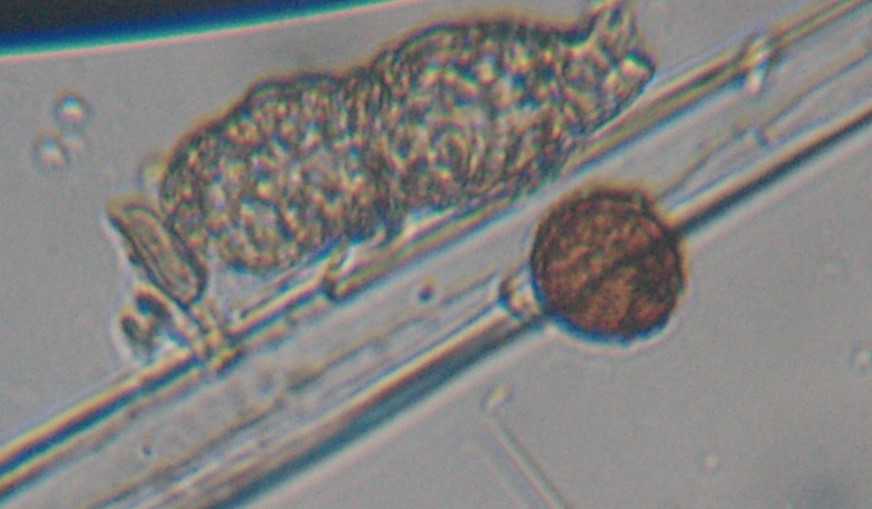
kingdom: Fungi
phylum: Ascomycota
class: Dothideomycetes
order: Pleosporales
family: Phaeosphaeriaceae
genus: Ampelomyces
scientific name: Ampelomyces quisqualis
